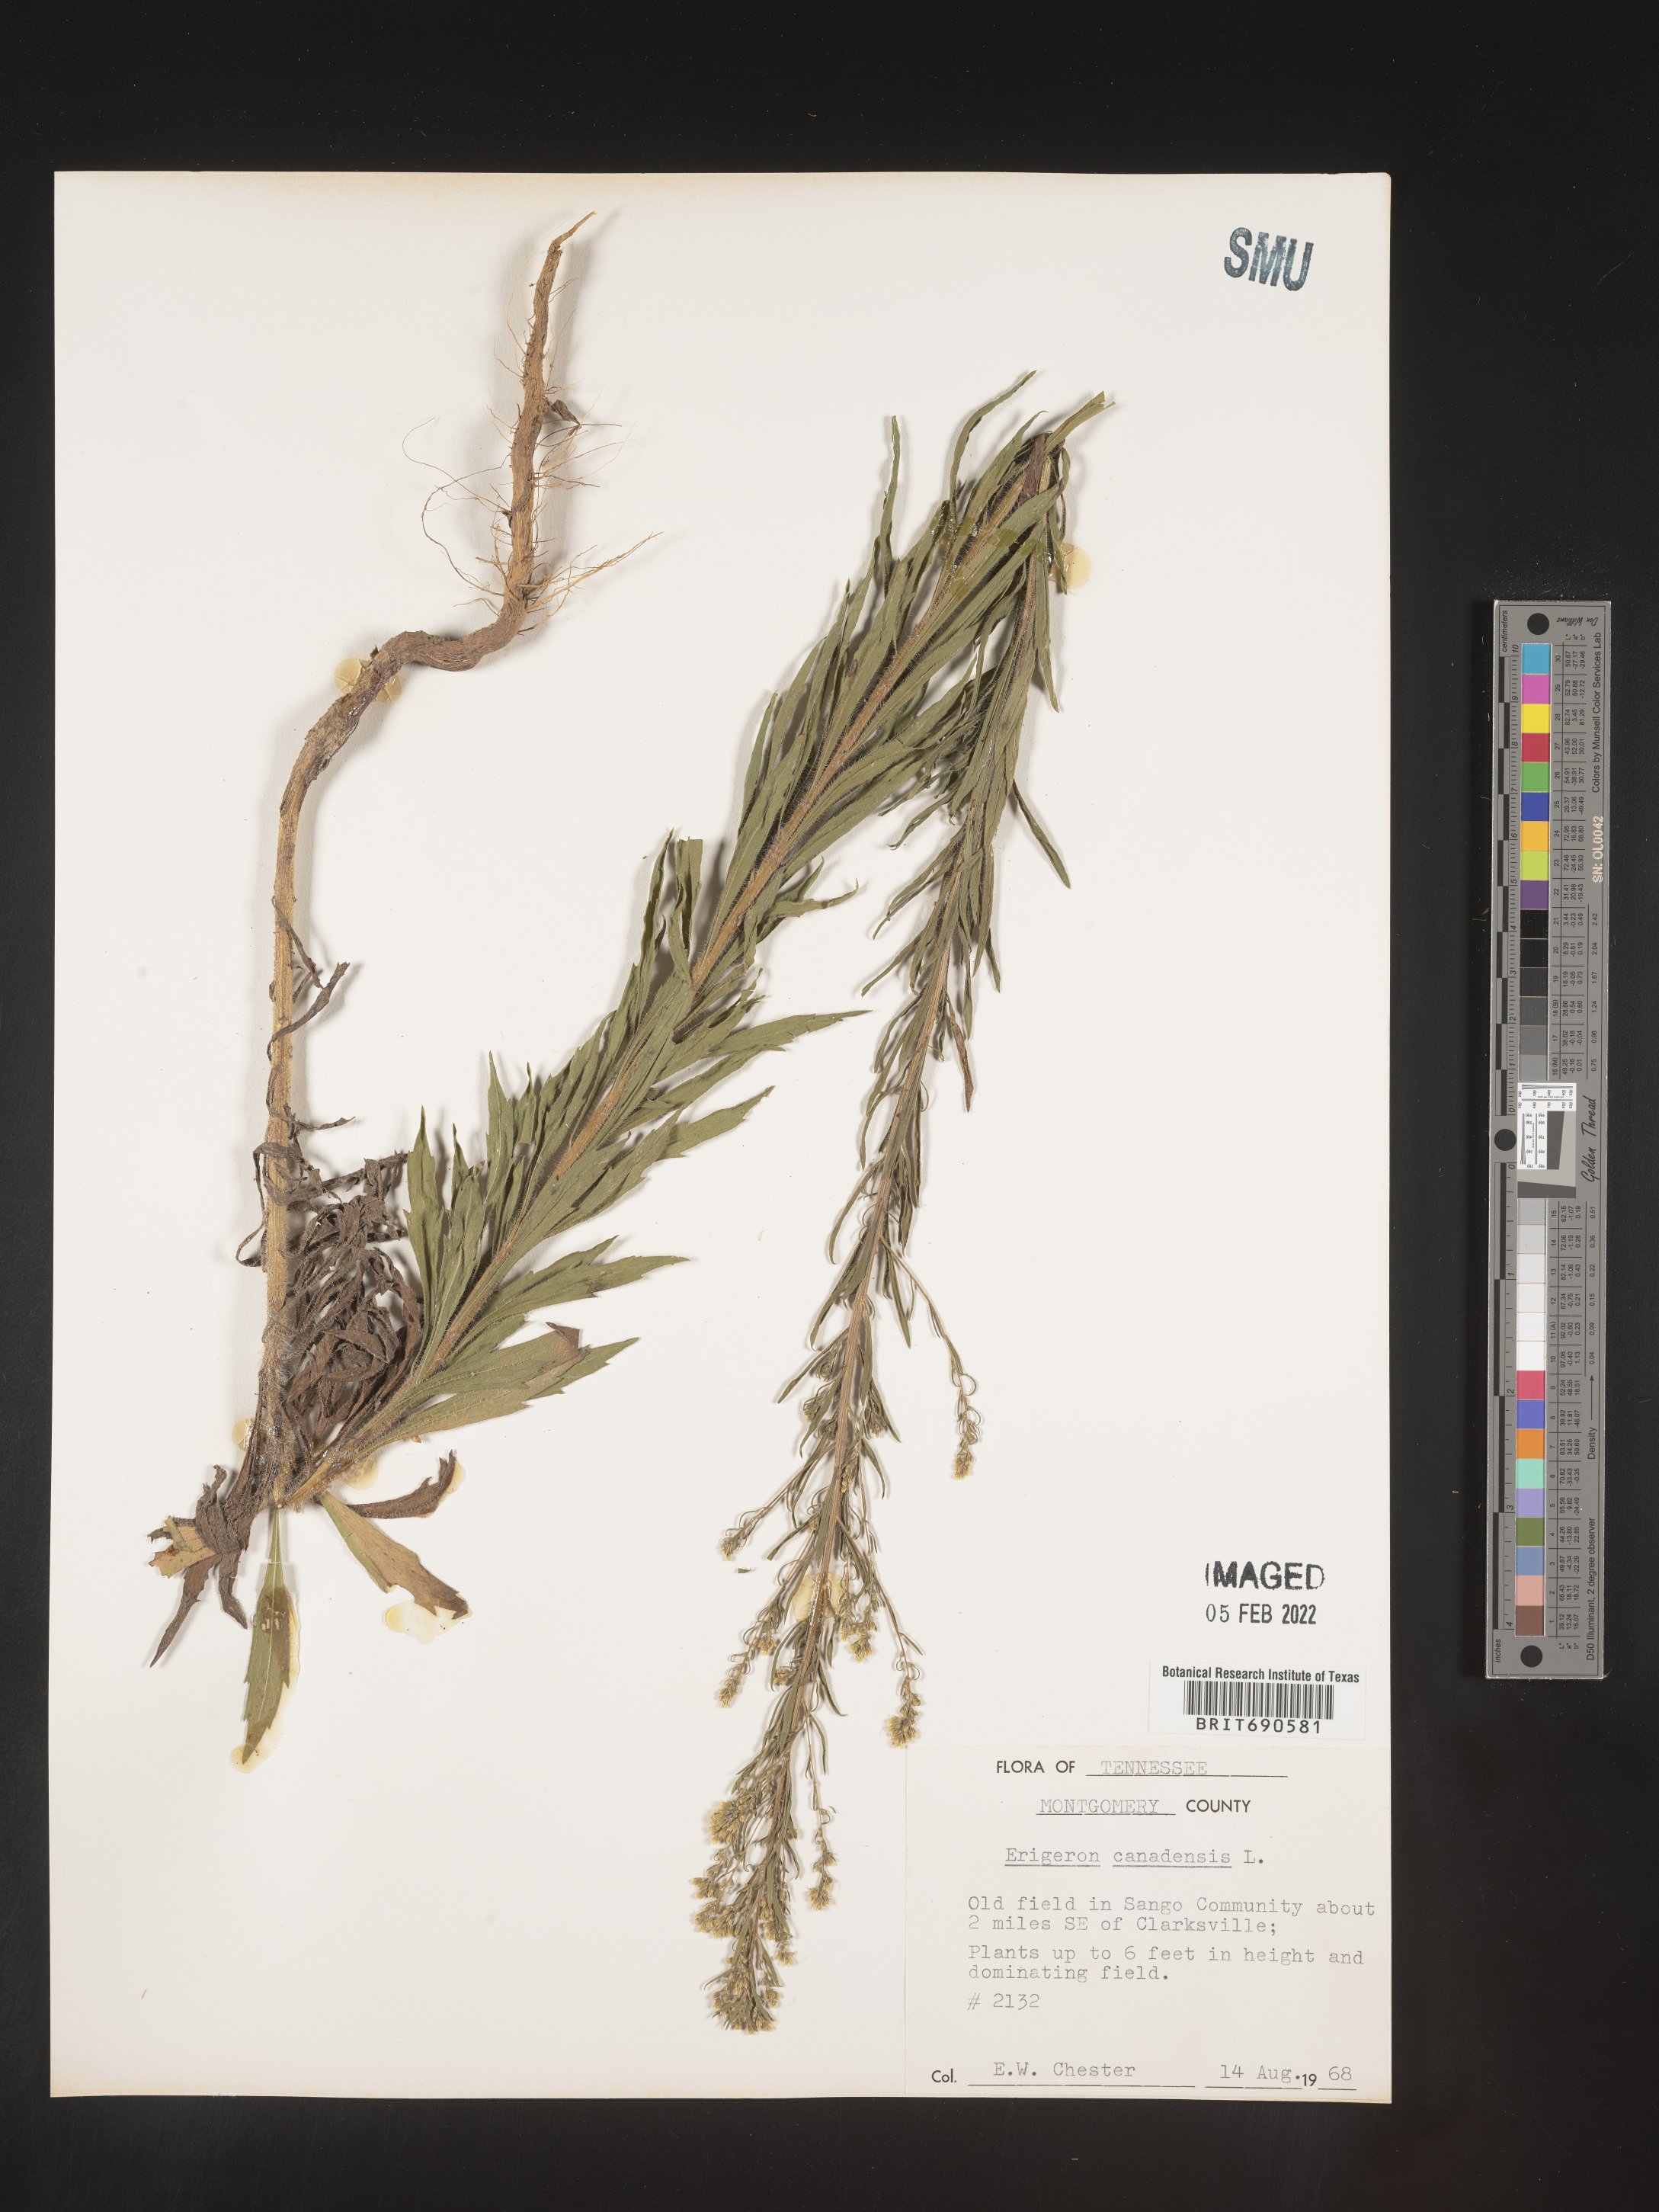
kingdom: Plantae
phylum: Tracheophyta
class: Magnoliopsida
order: Asterales
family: Asteraceae
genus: Erigeron
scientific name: Erigeron canadensis
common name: Canadian fleabane
